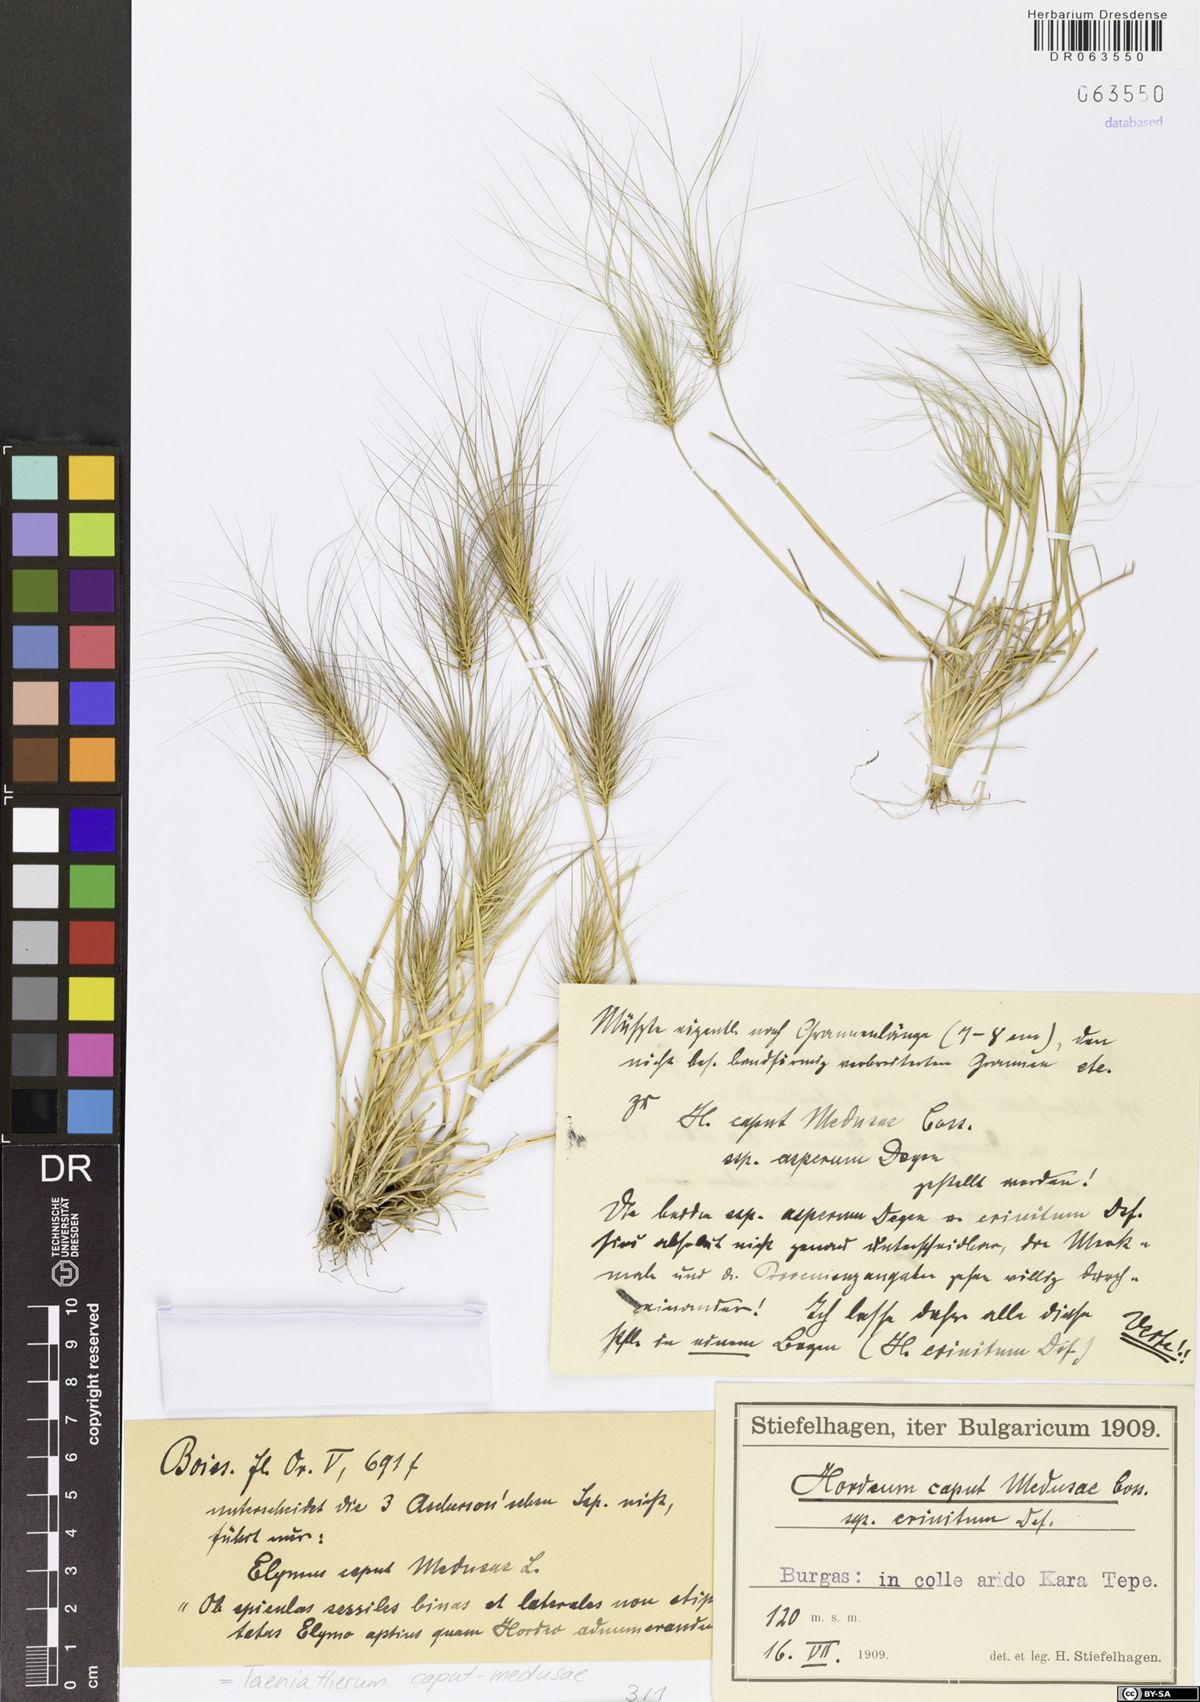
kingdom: Plantae
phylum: Tracheophyta
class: Liliopsida
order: Poales
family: Poaceae
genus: Taeniatherum
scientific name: Taeniatherum caput-medusae
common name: Medusahead
